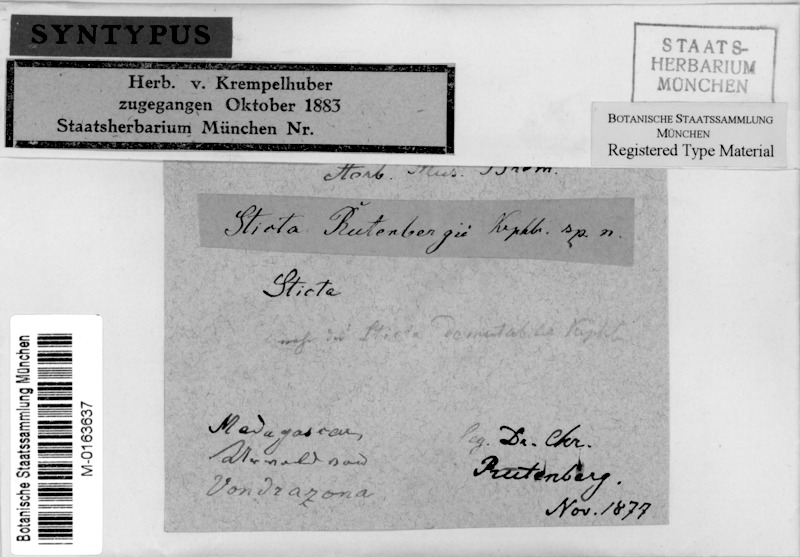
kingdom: Fungi
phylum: Ascomycota
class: Lecanoromycetes
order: Peltigerales
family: Lobariaceae
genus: Sticta
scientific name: Sticta
